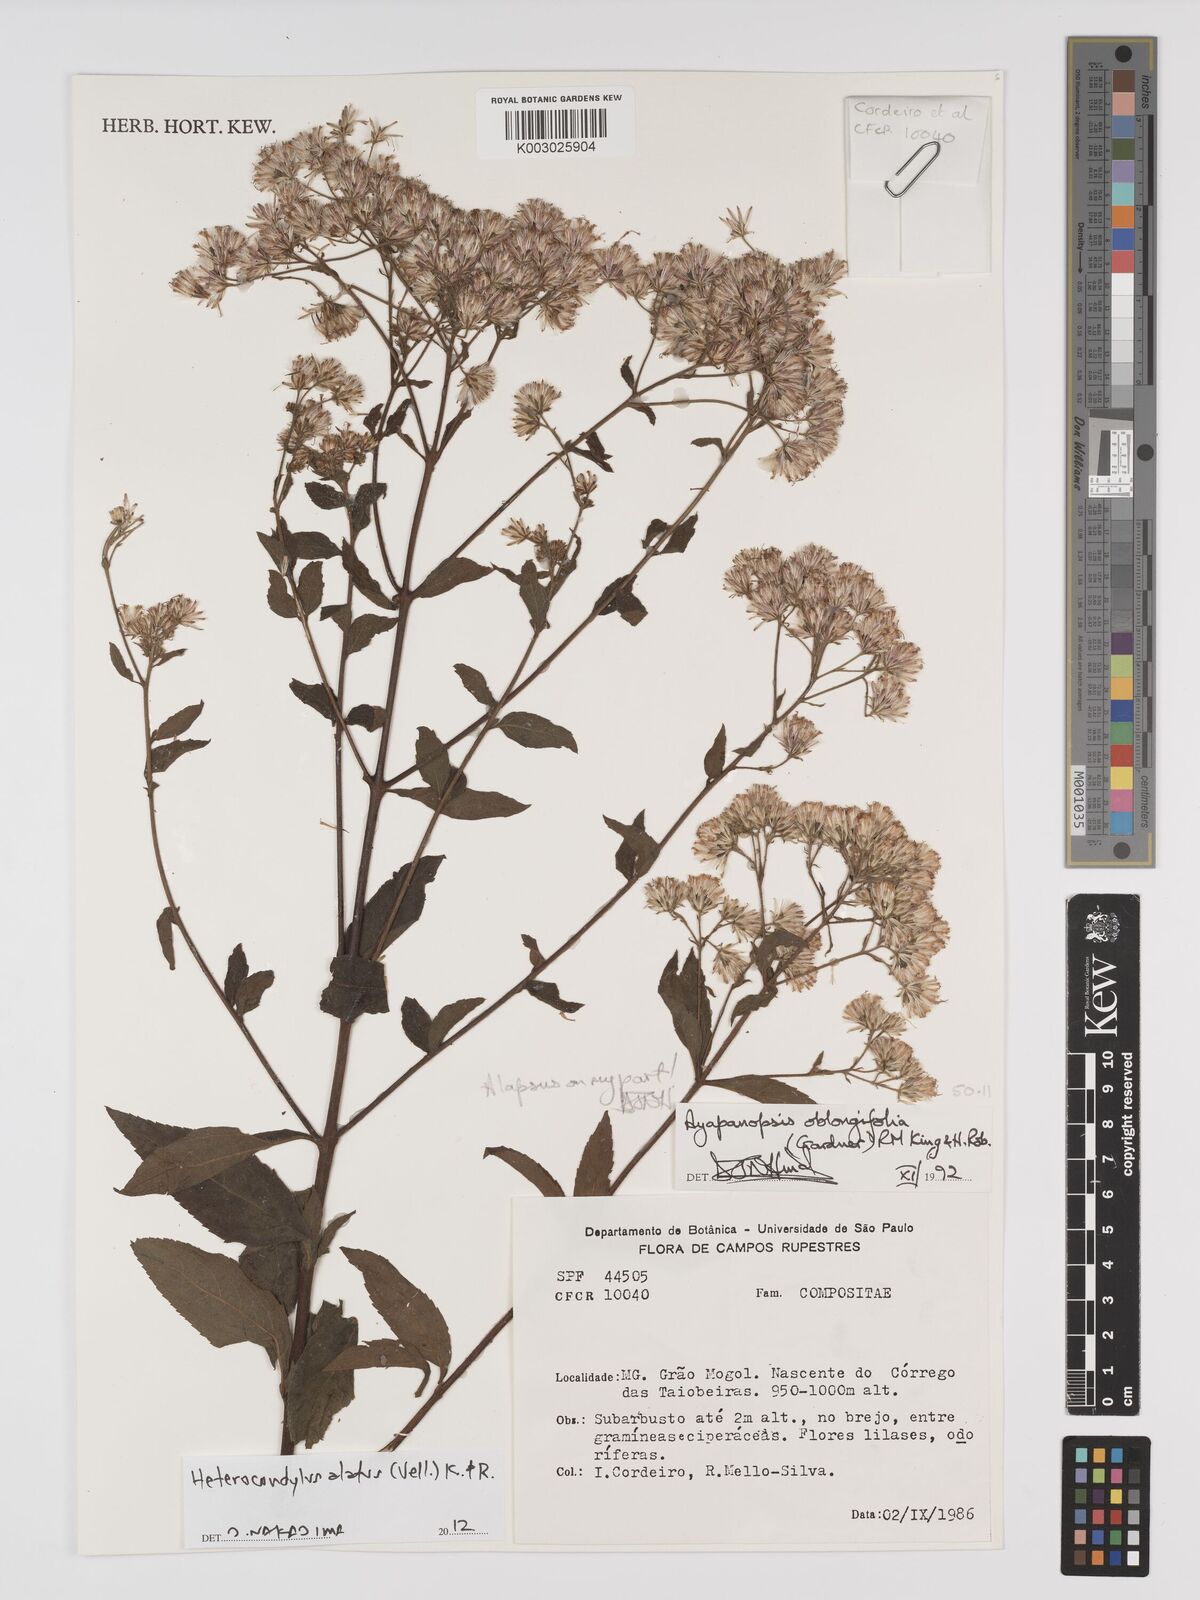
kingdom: Plantae
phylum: Tracheophyta
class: Magnoliopsida
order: Asterales
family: Asteraceae
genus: Heterocondylus
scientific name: Heterocondylus alatus
